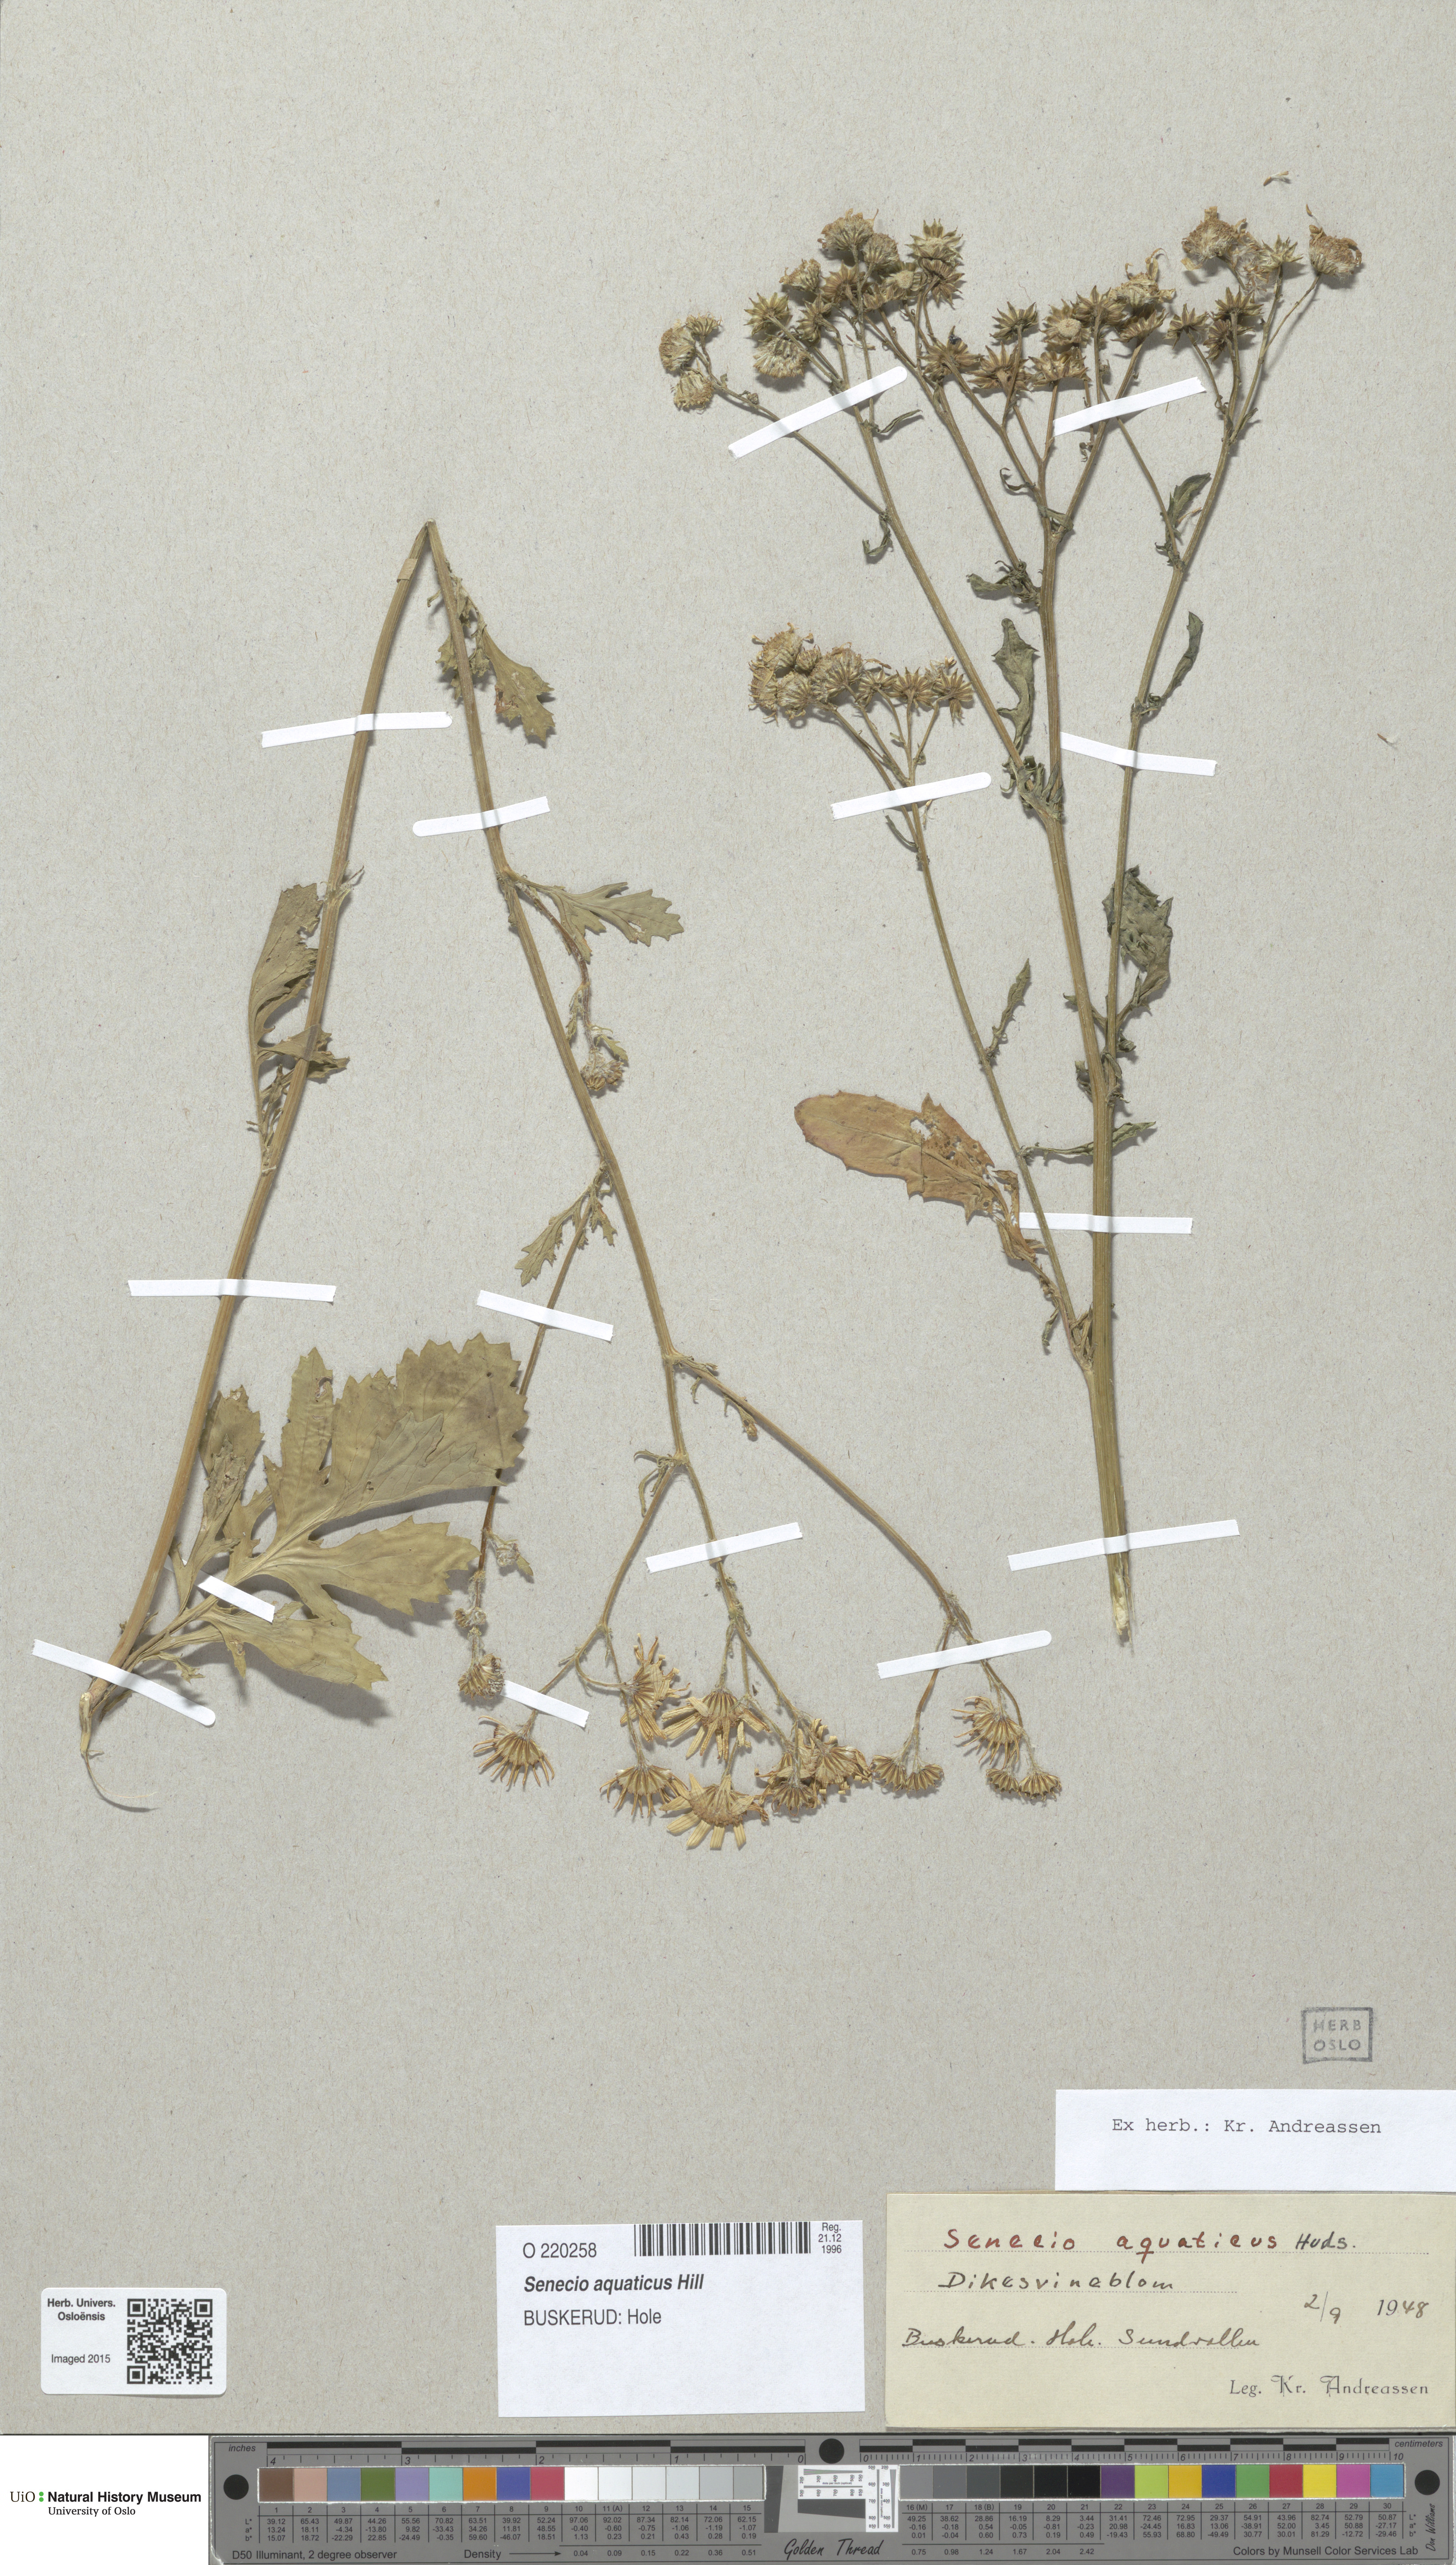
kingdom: Plantae
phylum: Tracheophyta
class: Magnoliopsida
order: Asterales
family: Asteraceae
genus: Jacobaea
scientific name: Jacobaea aquatica
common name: Water ragwort
